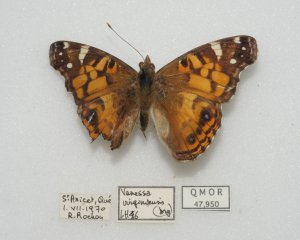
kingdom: Animalia
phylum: Arthropoda
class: Insecta
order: Lepidoptera
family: Nymphalidae
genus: Vanessa
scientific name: Vanessa virginiensis
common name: American Lady
